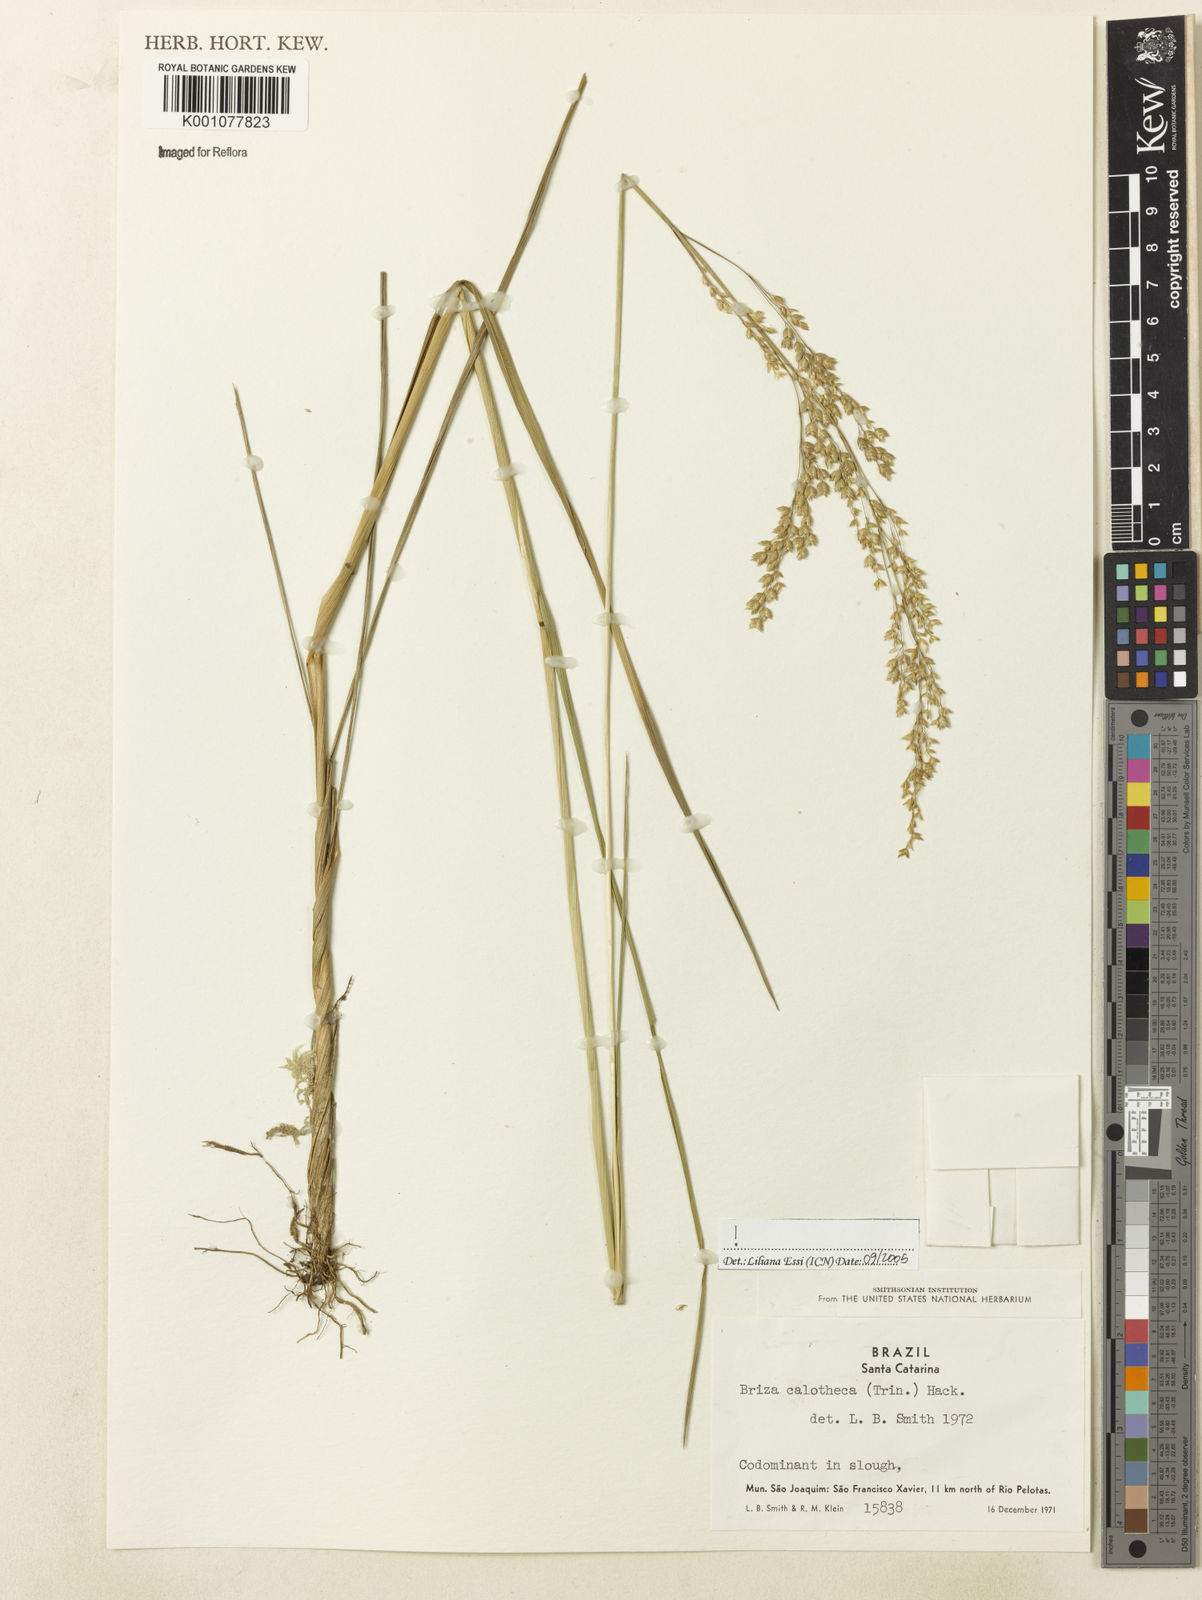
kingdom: Plantae
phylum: Tracheophyta
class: Liliopsida
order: Poales
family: Poaceae
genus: Poidium
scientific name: Poidium calotheca
